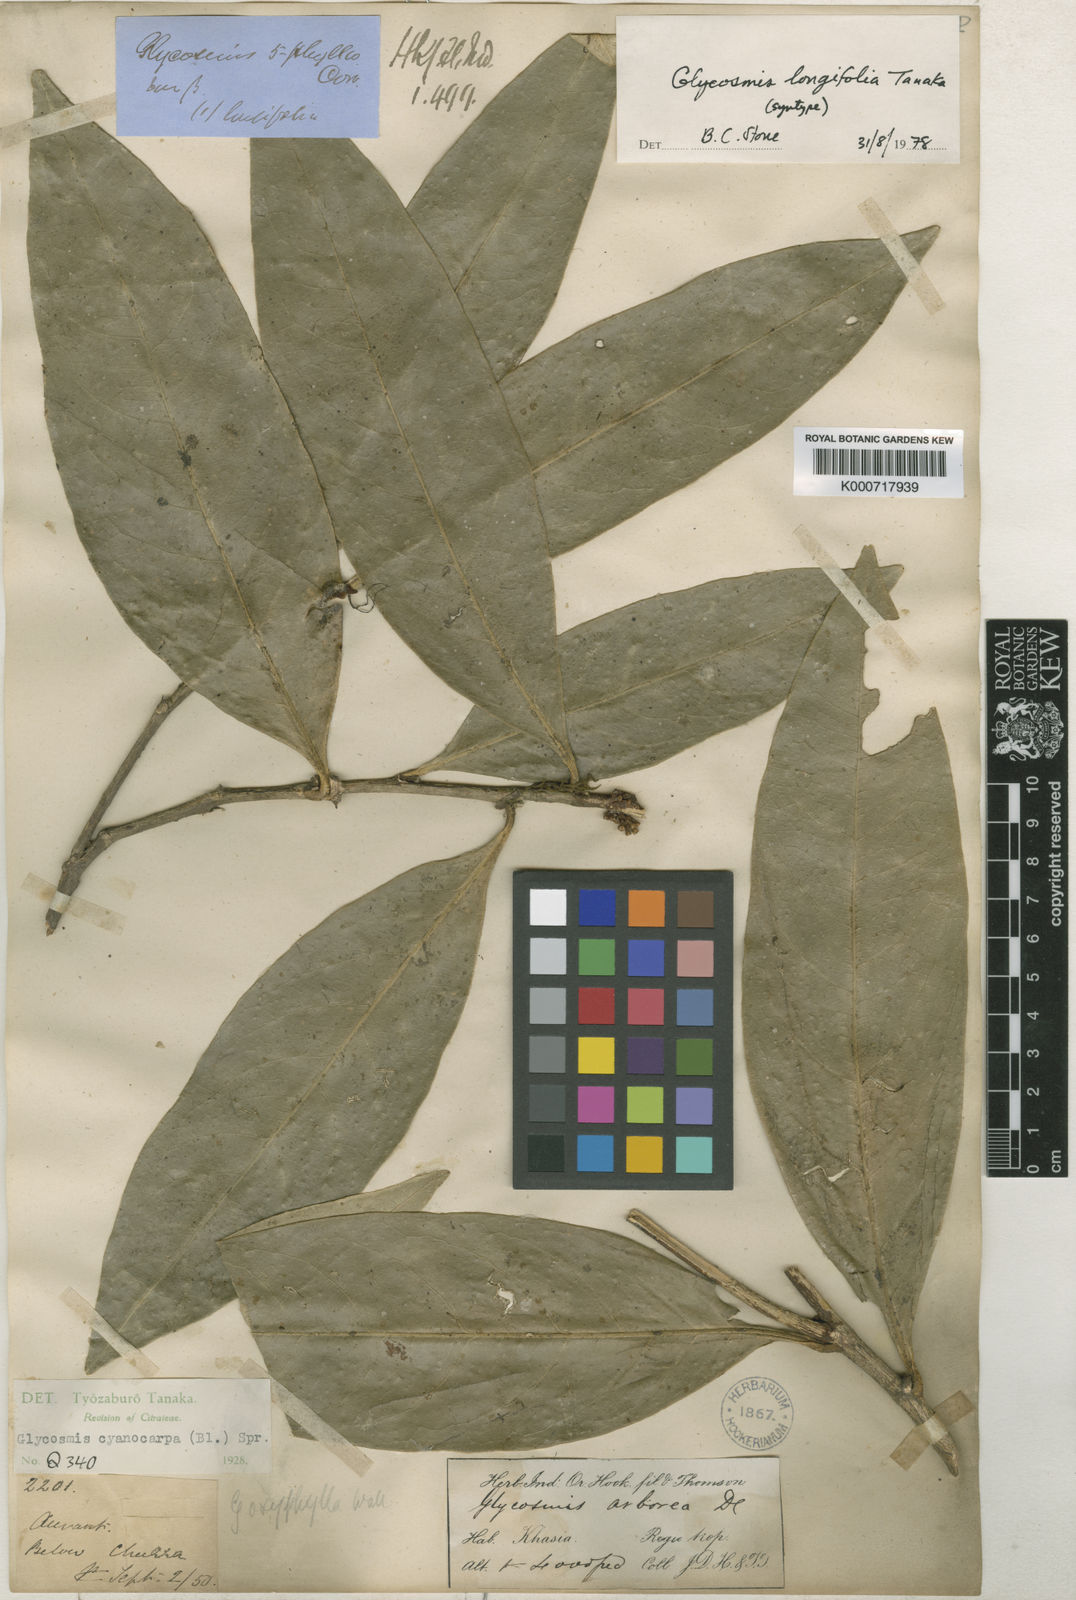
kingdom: Plantae
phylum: Tracheophyta
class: Magnoliopsida
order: Sapindales
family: Rutaceae
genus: Glycosmis
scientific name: Glycosmis cyanocarpa
